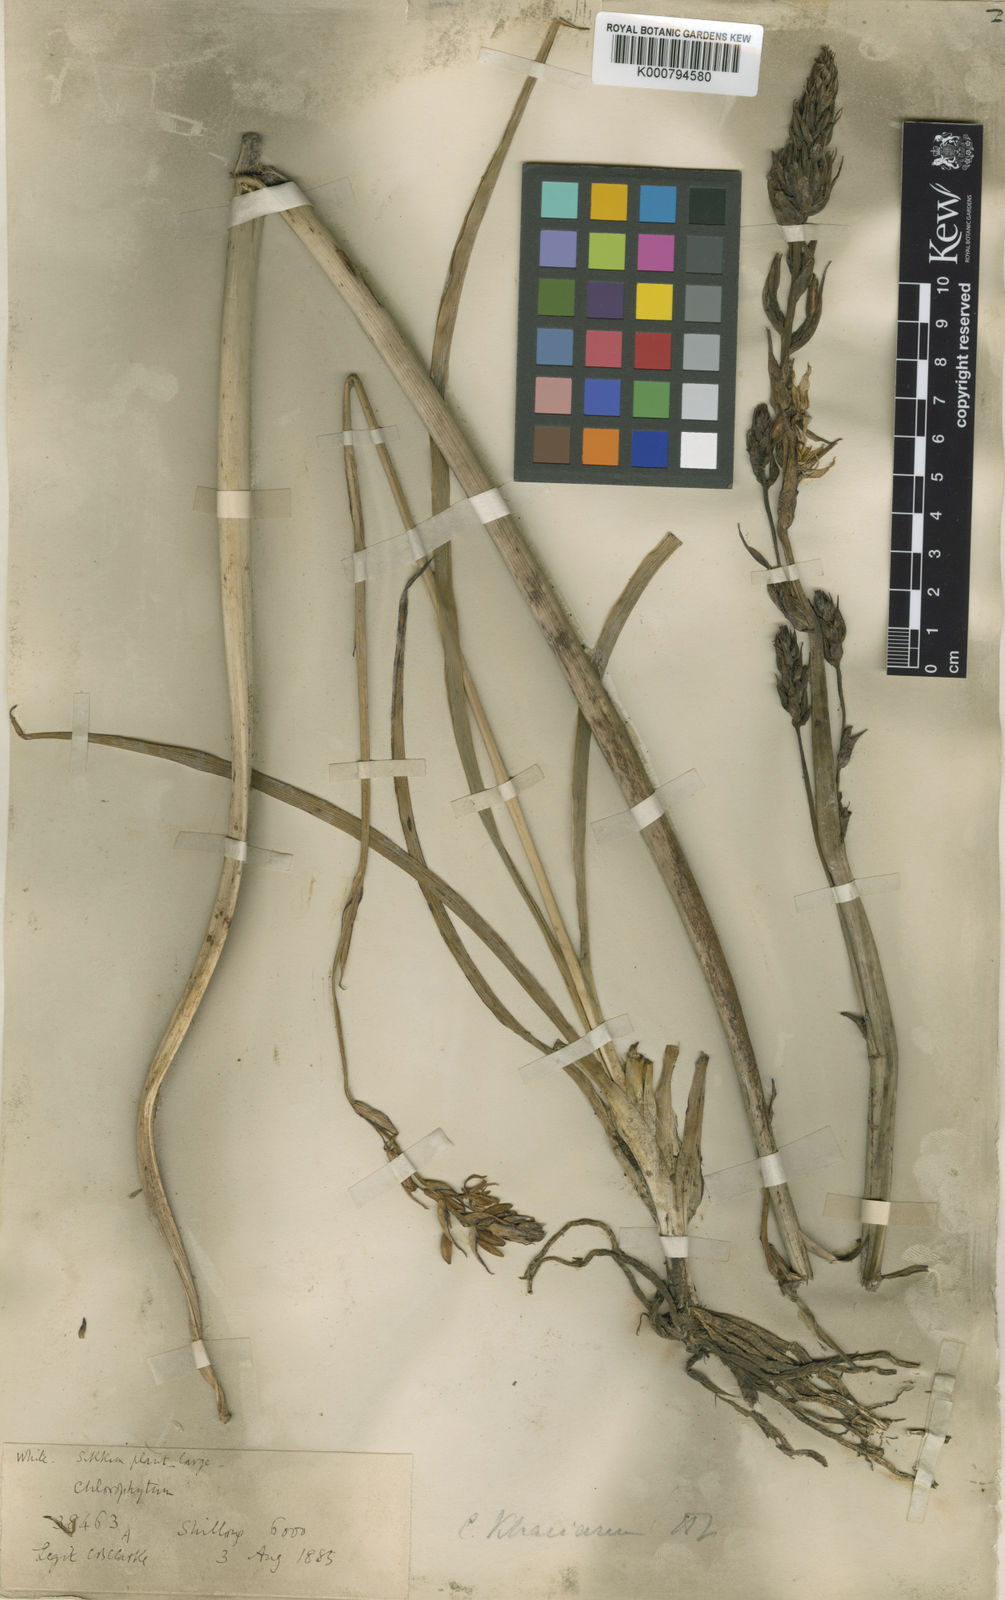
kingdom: Plantae
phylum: Tracheophyta
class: Liliopsida
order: Asparagales
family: Asparagaceae
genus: Chlorophytum
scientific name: Chlorophytum nepalense
